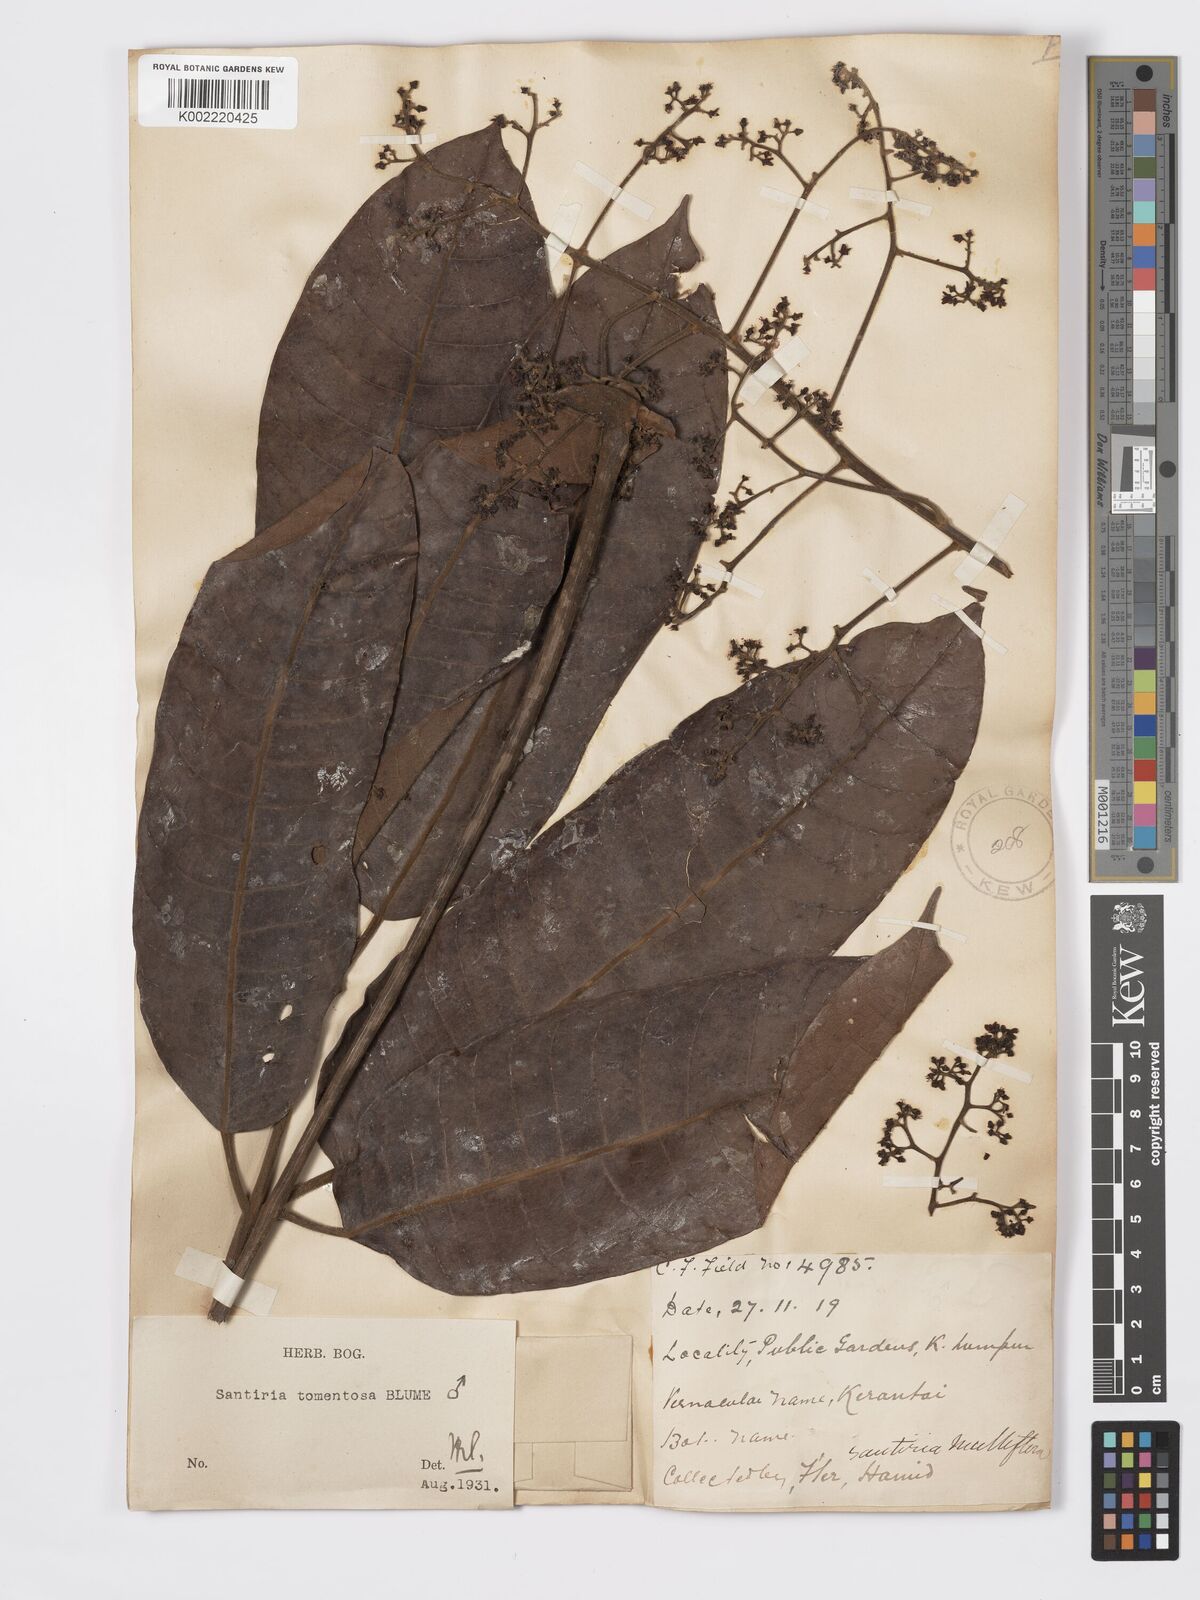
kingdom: Plantae
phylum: Tracheophyta
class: Magnoliopsida
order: Sapindales
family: Burseraceae
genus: Santiria
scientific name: Santiria tomentosa
